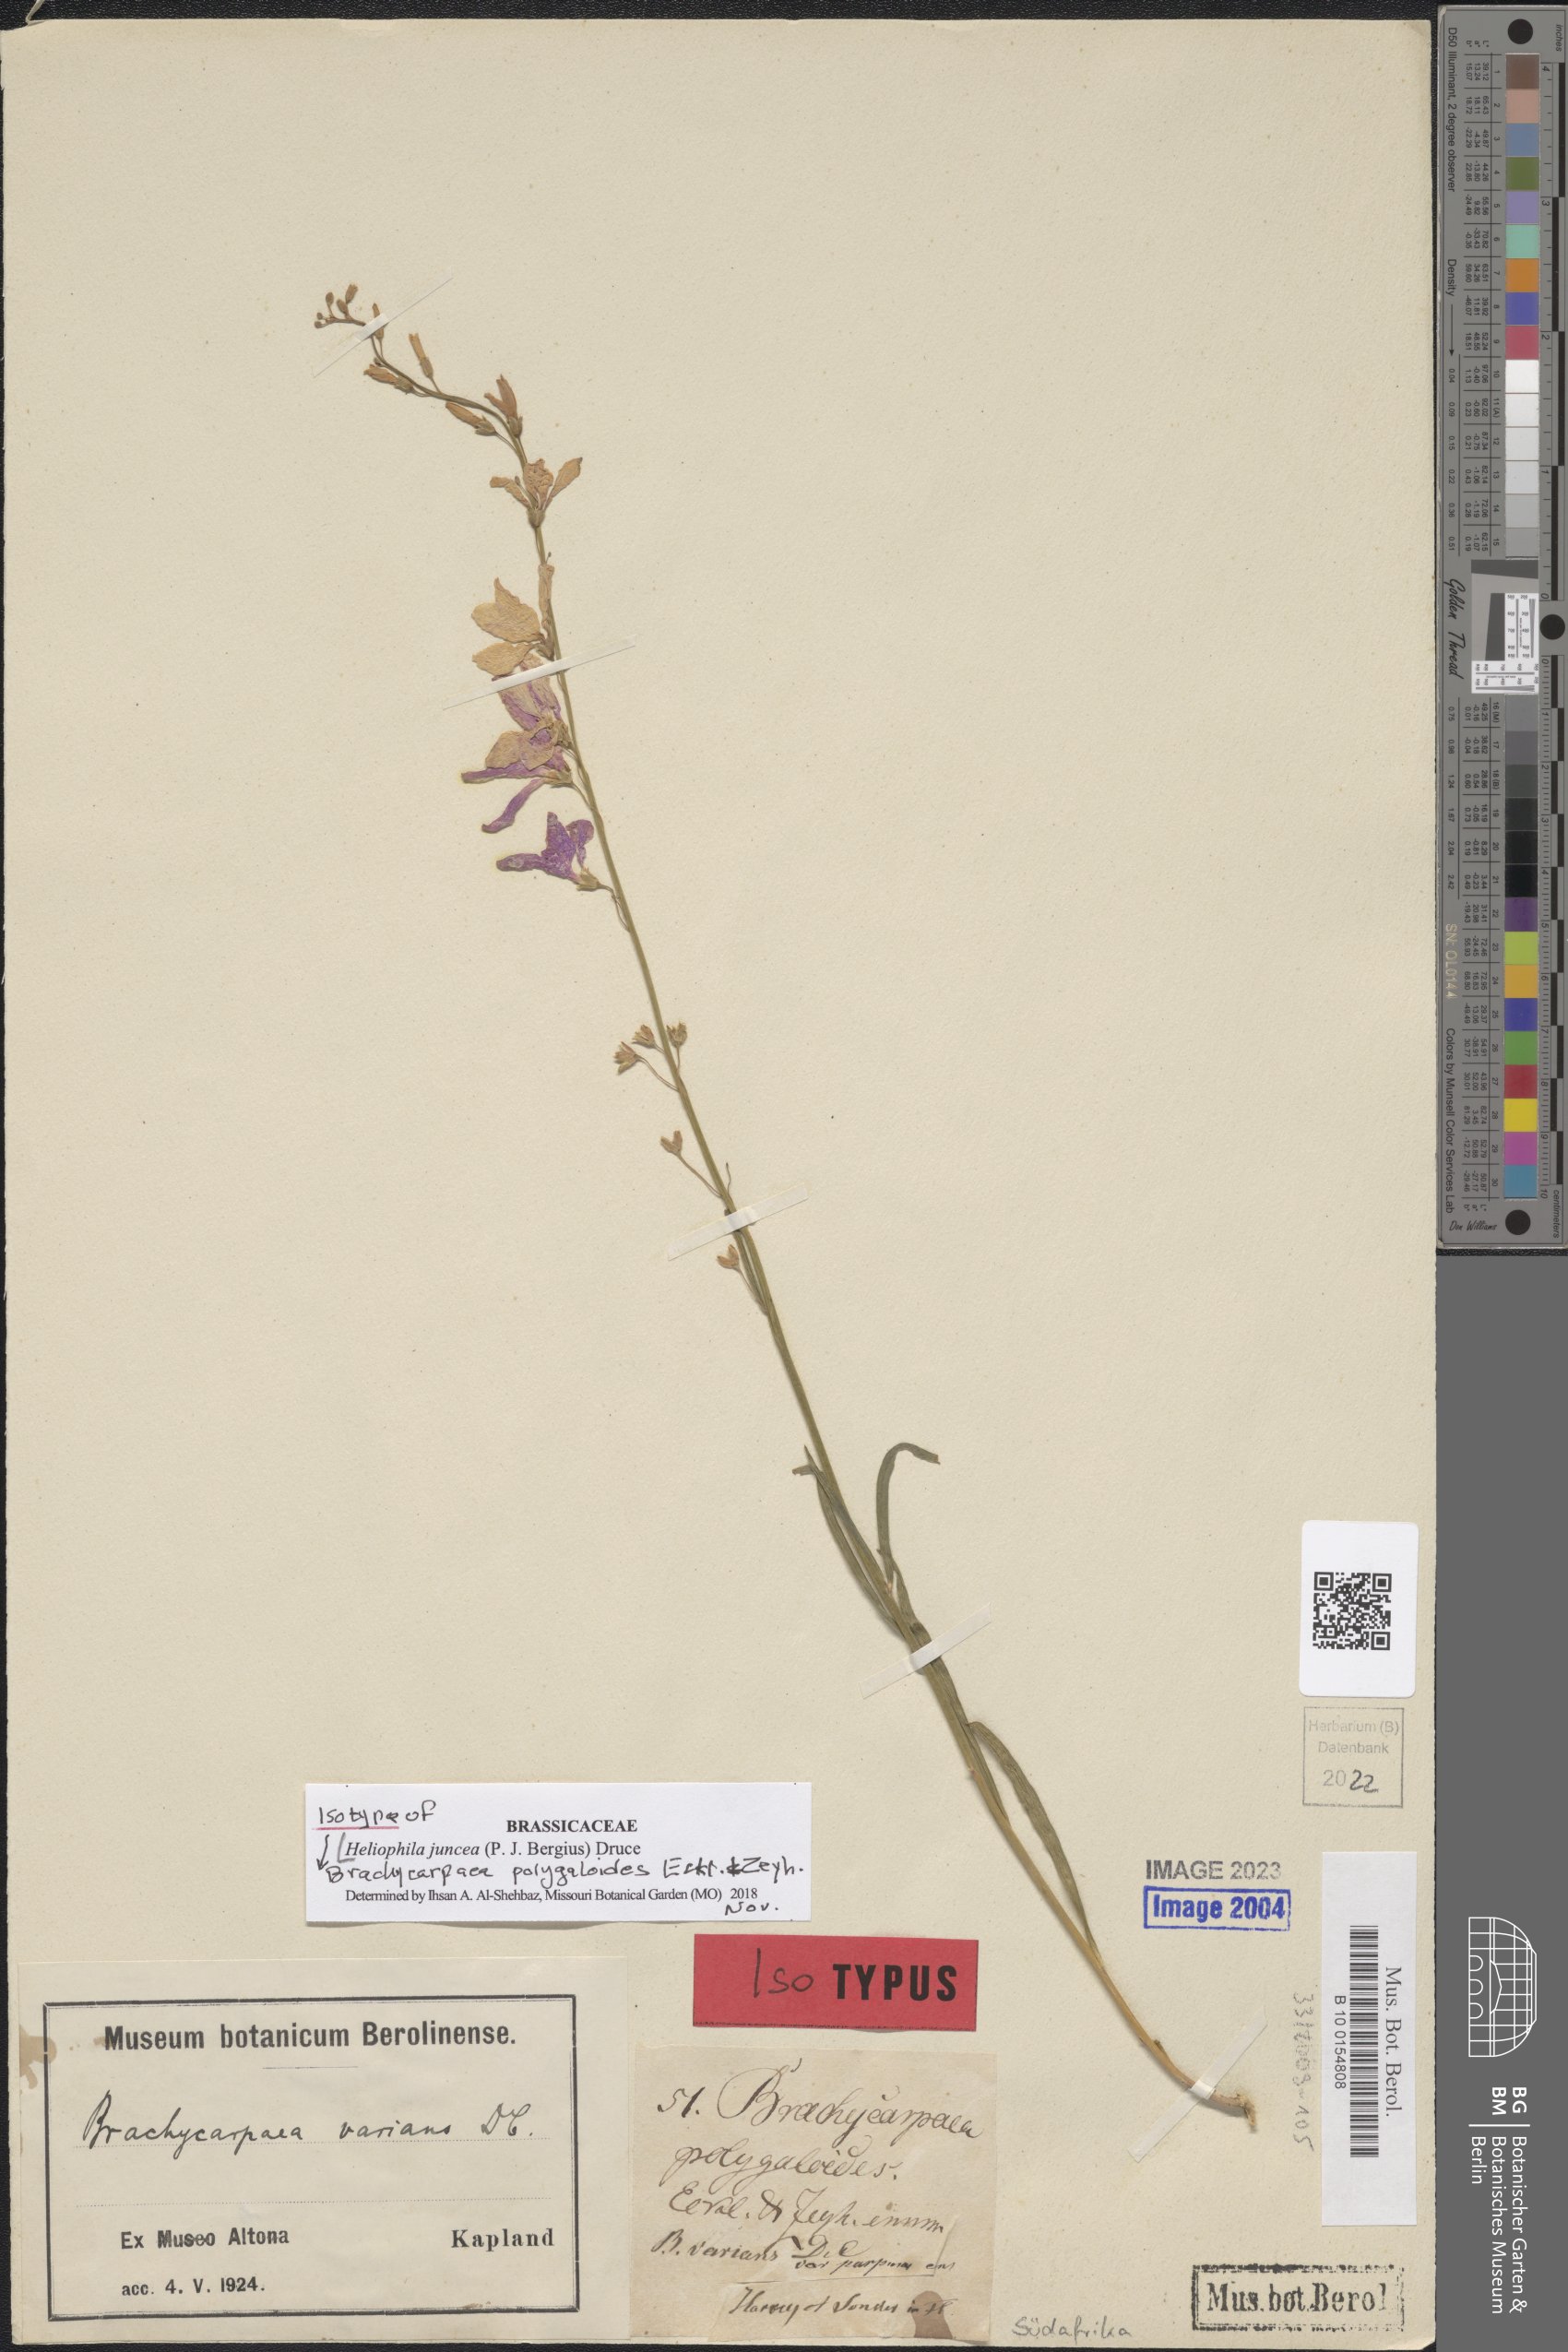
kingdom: Plantae
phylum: Tracheophyta
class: Magnoliopsida
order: Brassicales
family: Brassicaceae
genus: Heliophila
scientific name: Heliophila juncea
